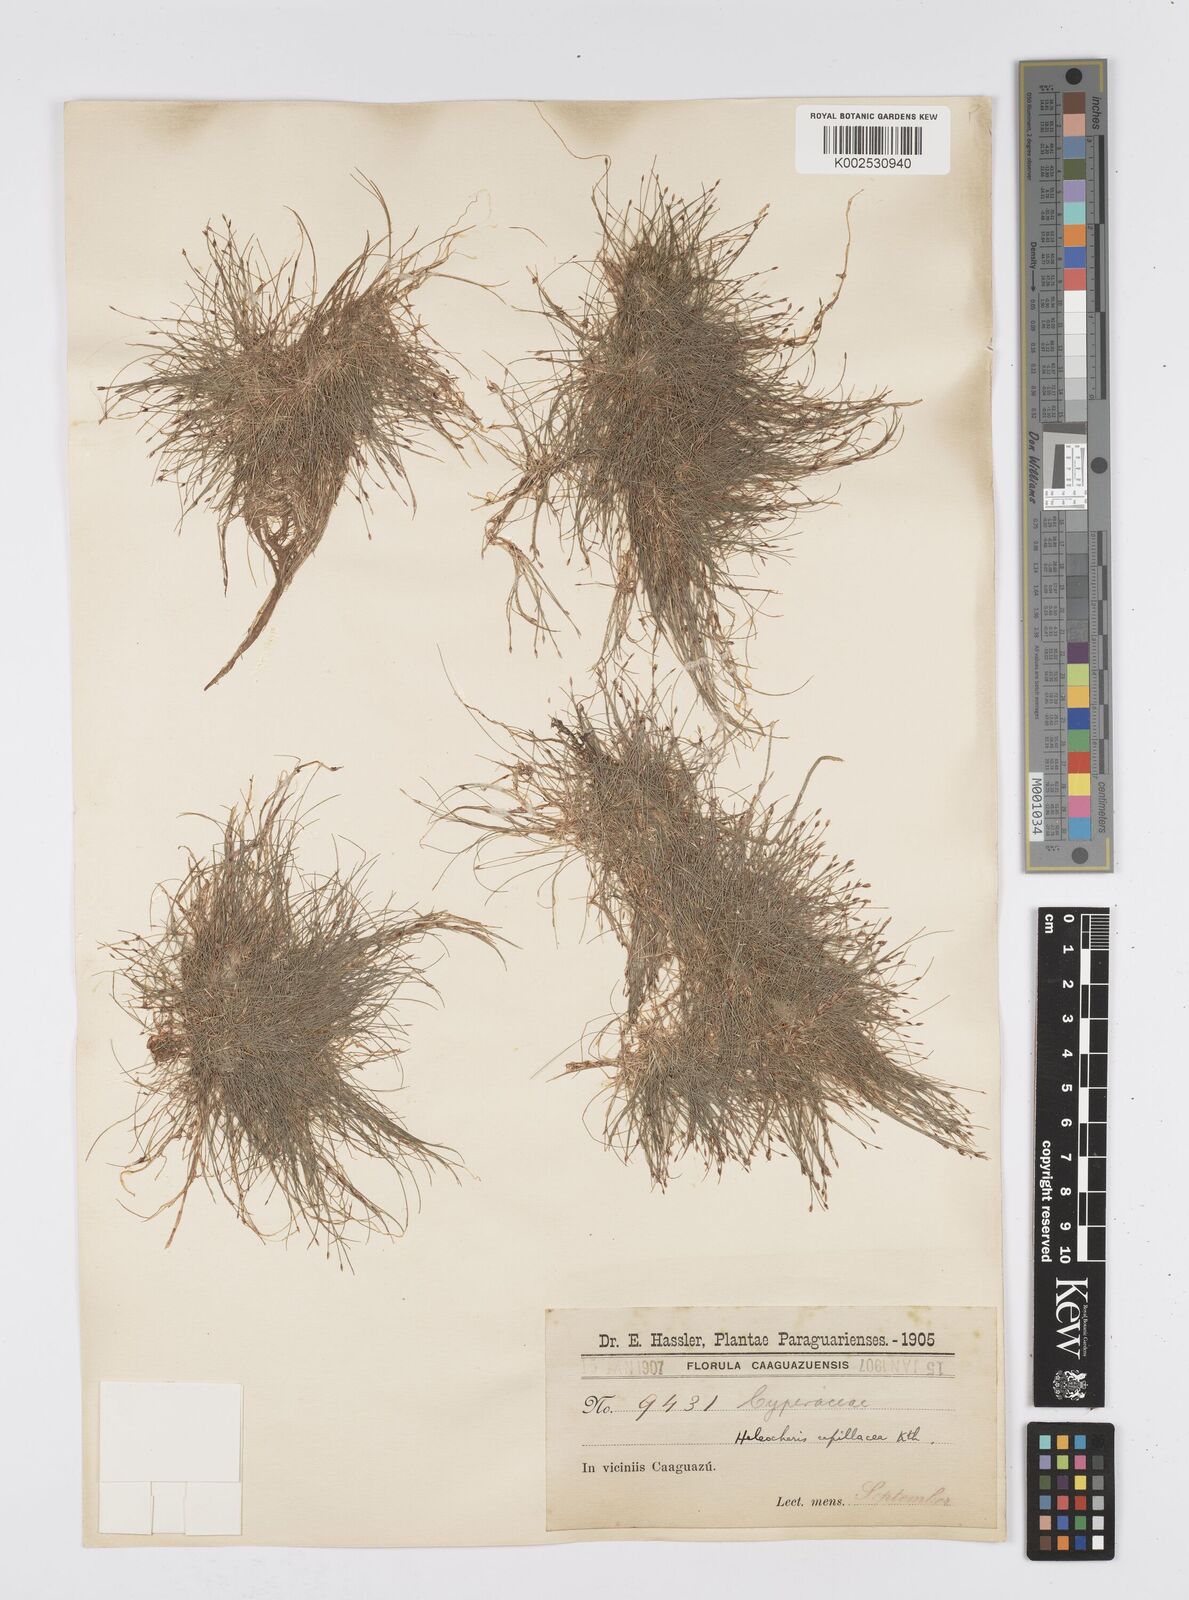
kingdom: Plantae
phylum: Tracheophyta
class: Liliopsida
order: Poales
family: Cyperaceae
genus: Eleocharis
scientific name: Eleocharis capillacea
